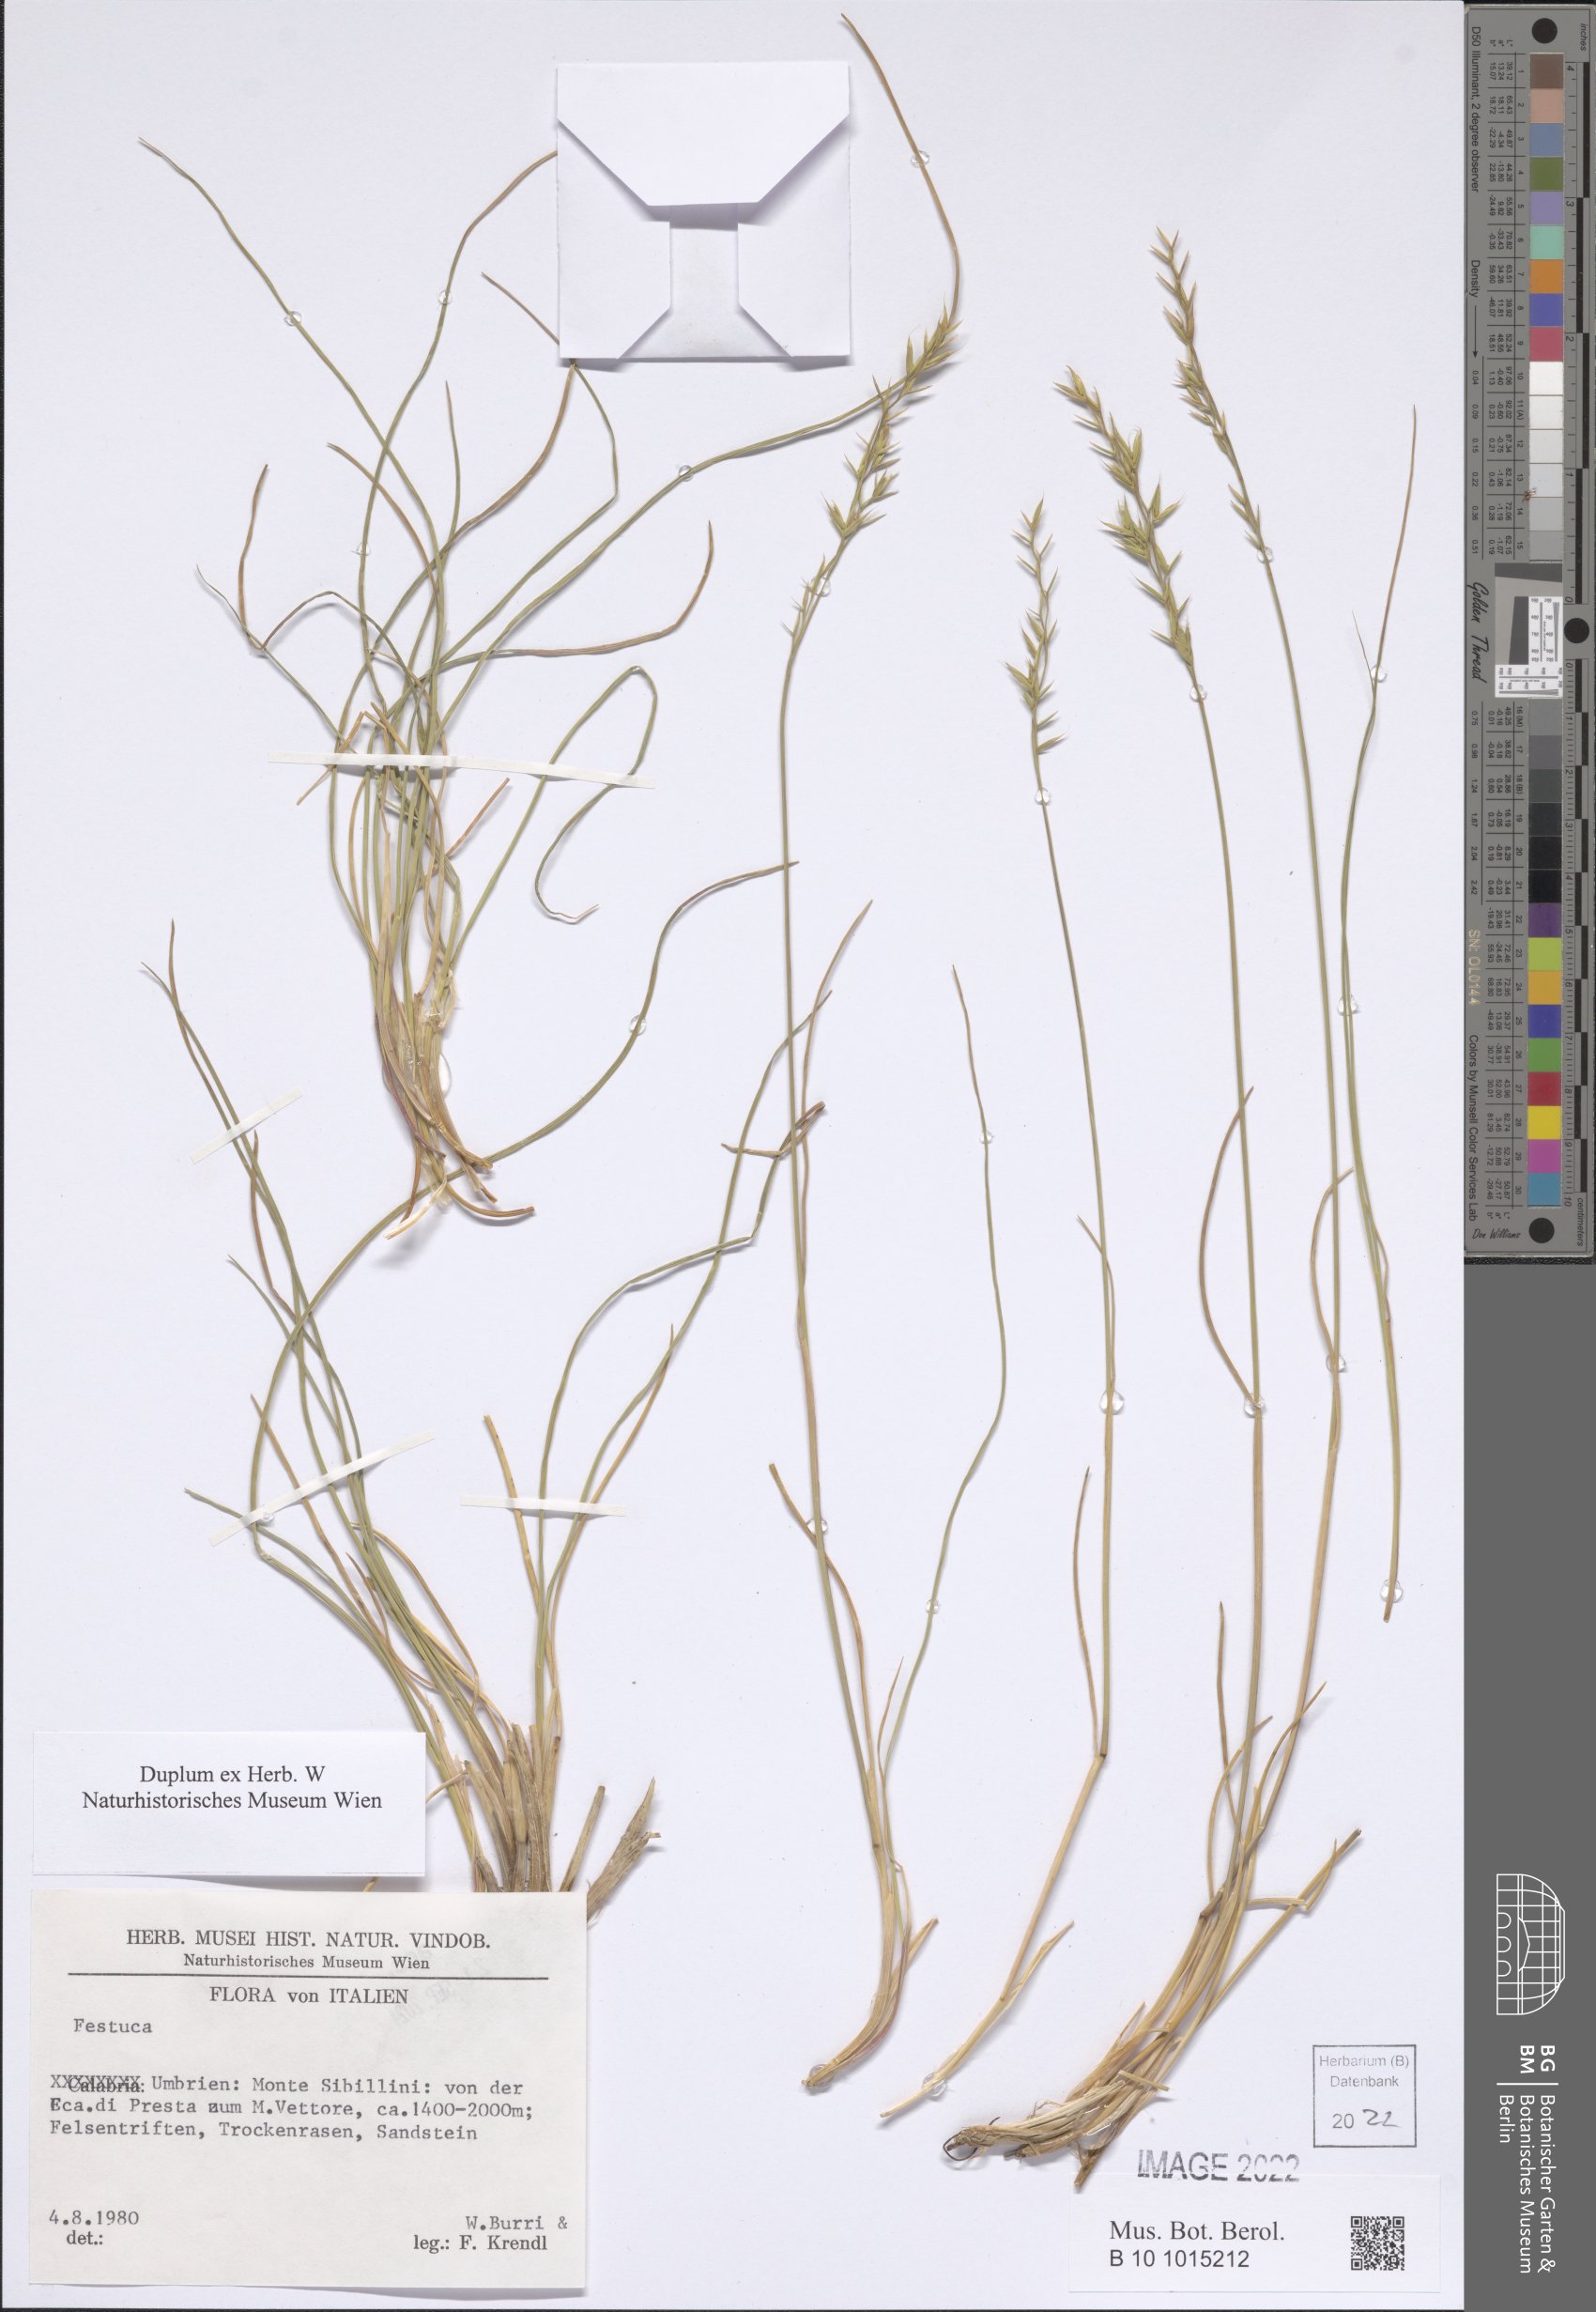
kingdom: Plantae
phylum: Tracheophyta
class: Liliopsida
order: Poales
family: Poaceae
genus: Festuca
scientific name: Festuca
